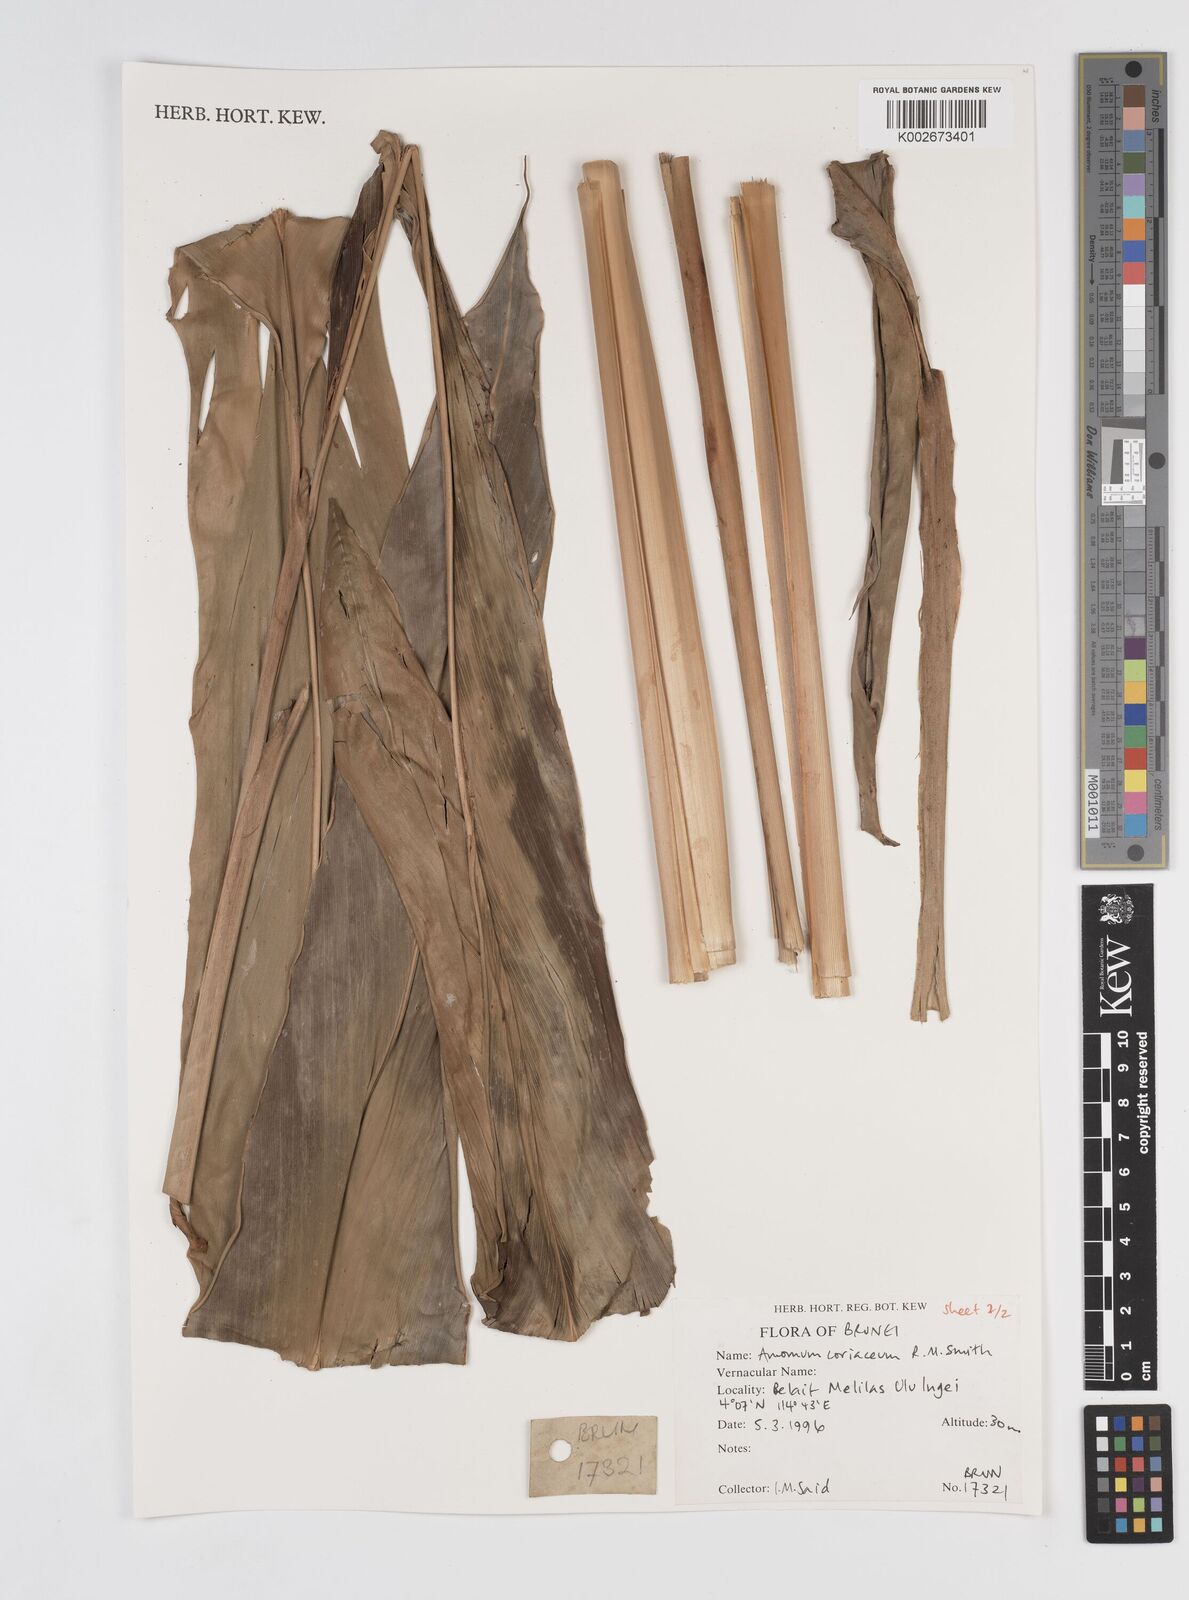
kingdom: Plantae
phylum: Tracheophyta
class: Liliopsida
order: Zingiberales
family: Zingiberaceae
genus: Conamomum
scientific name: Conamomum cylindrostachys
